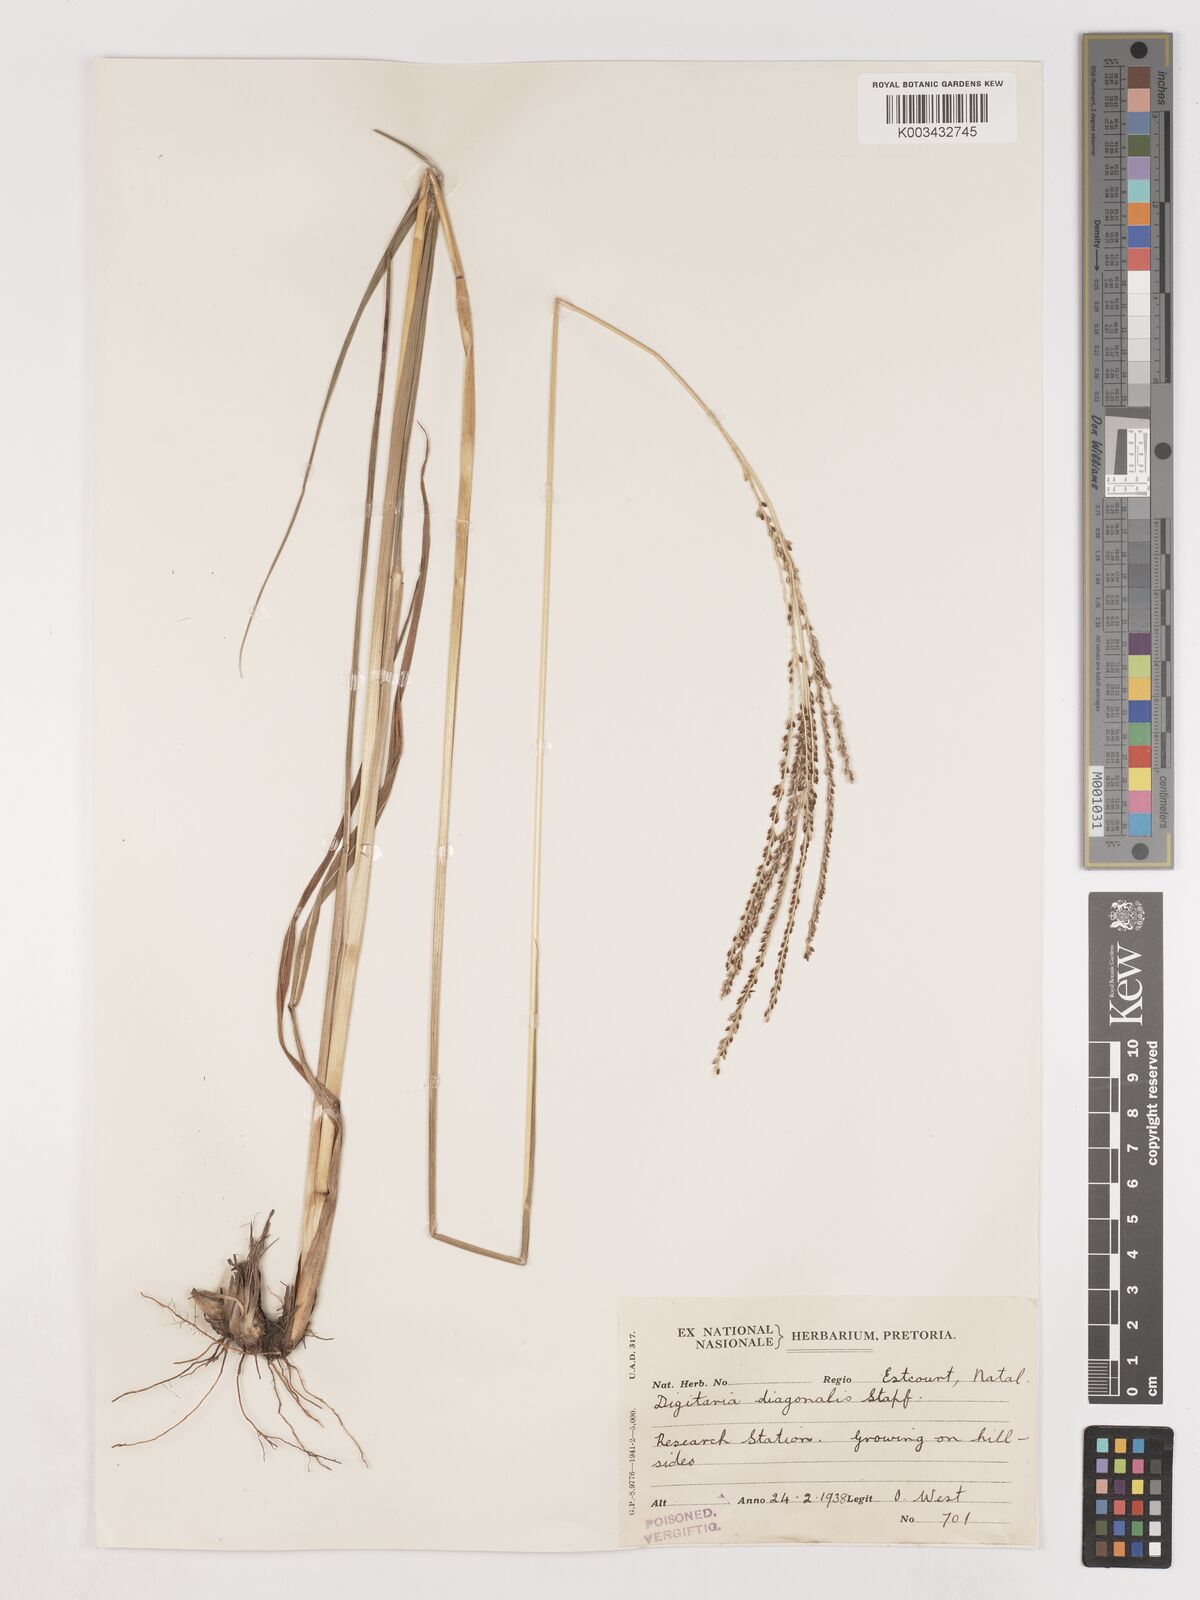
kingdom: Plantae
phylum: Tracheophyta
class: Liliopsida
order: Poales
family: Poaceae
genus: Digitaria
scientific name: Digitaria diagonalis
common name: Brown-seed finger grass
